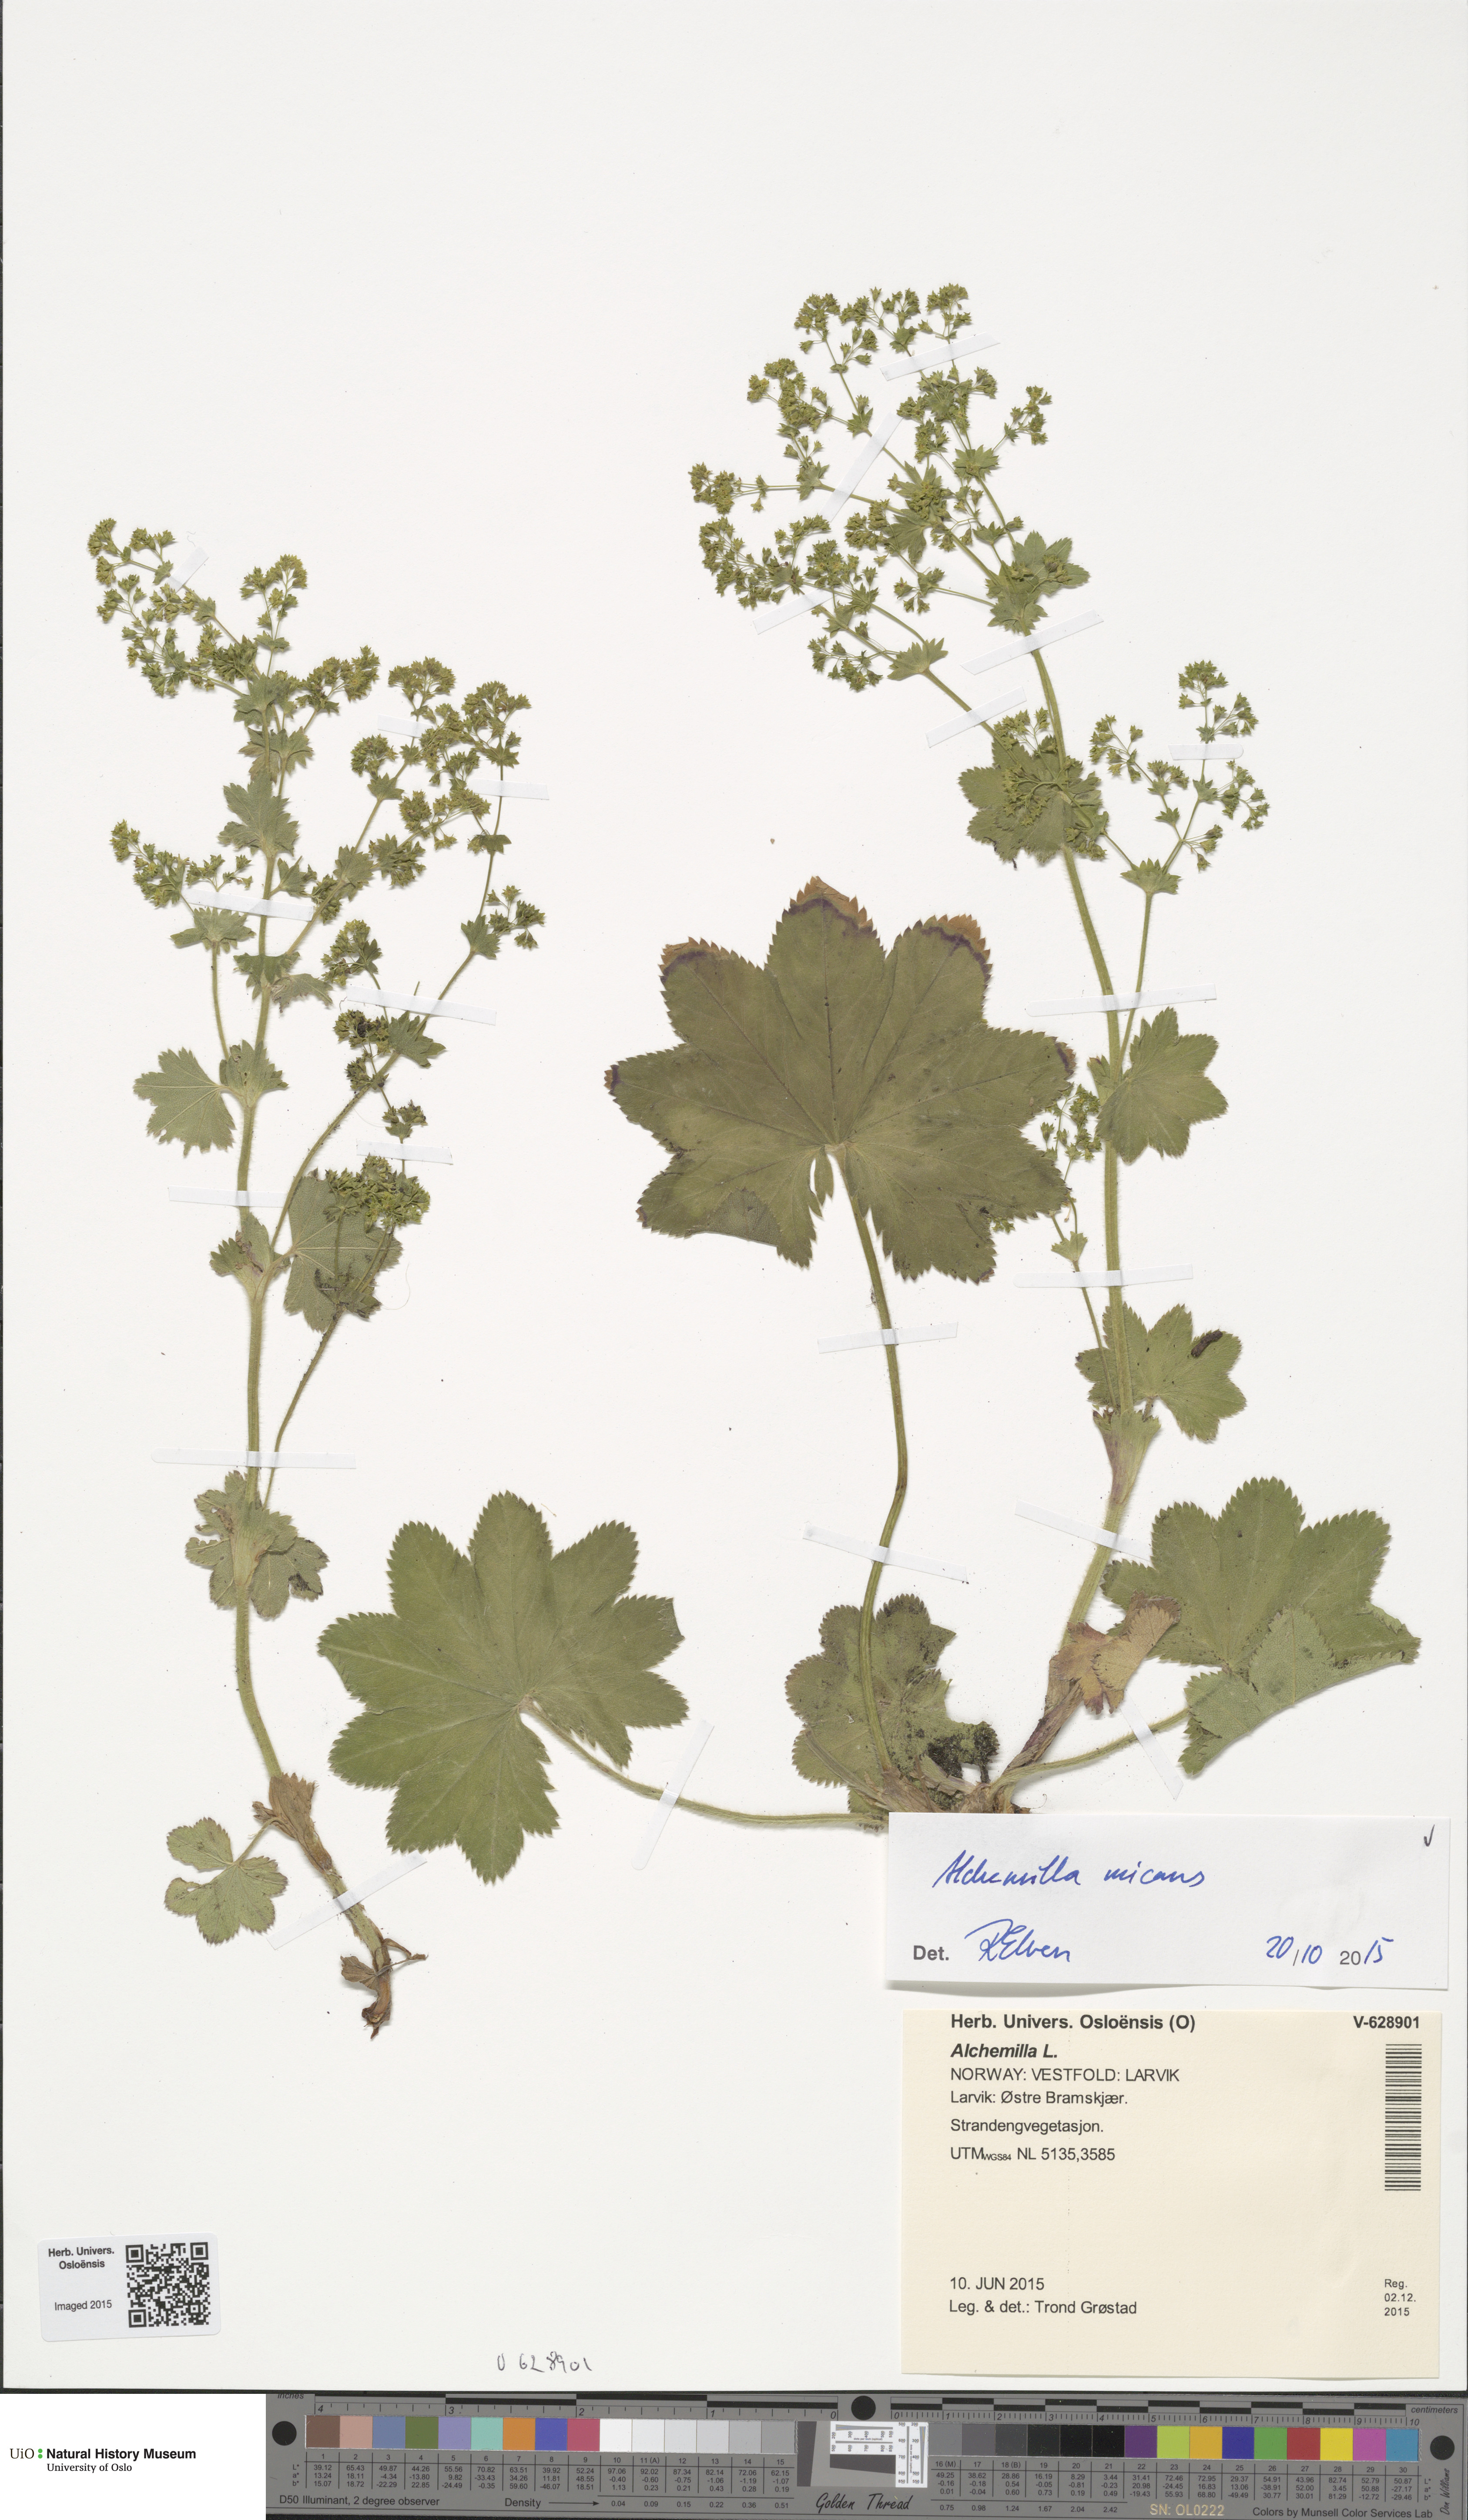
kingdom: Plantae
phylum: Tracheophyta
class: Magnoliopsida
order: Rosales
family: Rosaceae
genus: Alchemilla
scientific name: Alchemilla micans
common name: Gleaming lady's mantle
